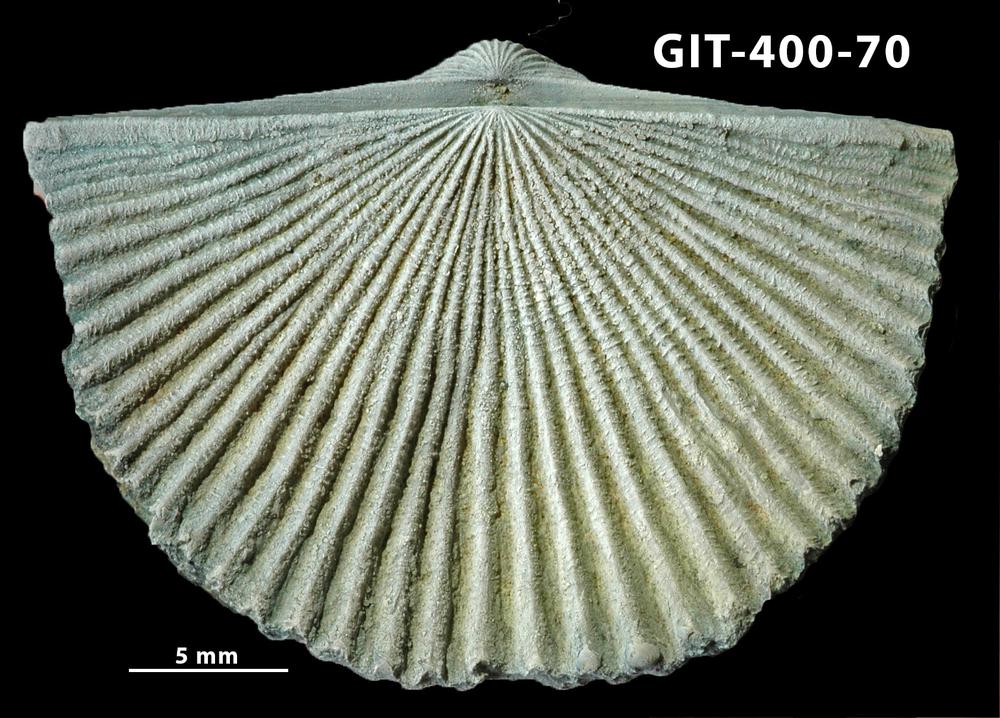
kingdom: Animalia
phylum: Brachiopoda
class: Rhynchonellata
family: Orthidae
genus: Cyrtonotella
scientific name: Cyrtonotella Orthis kuckersiana
